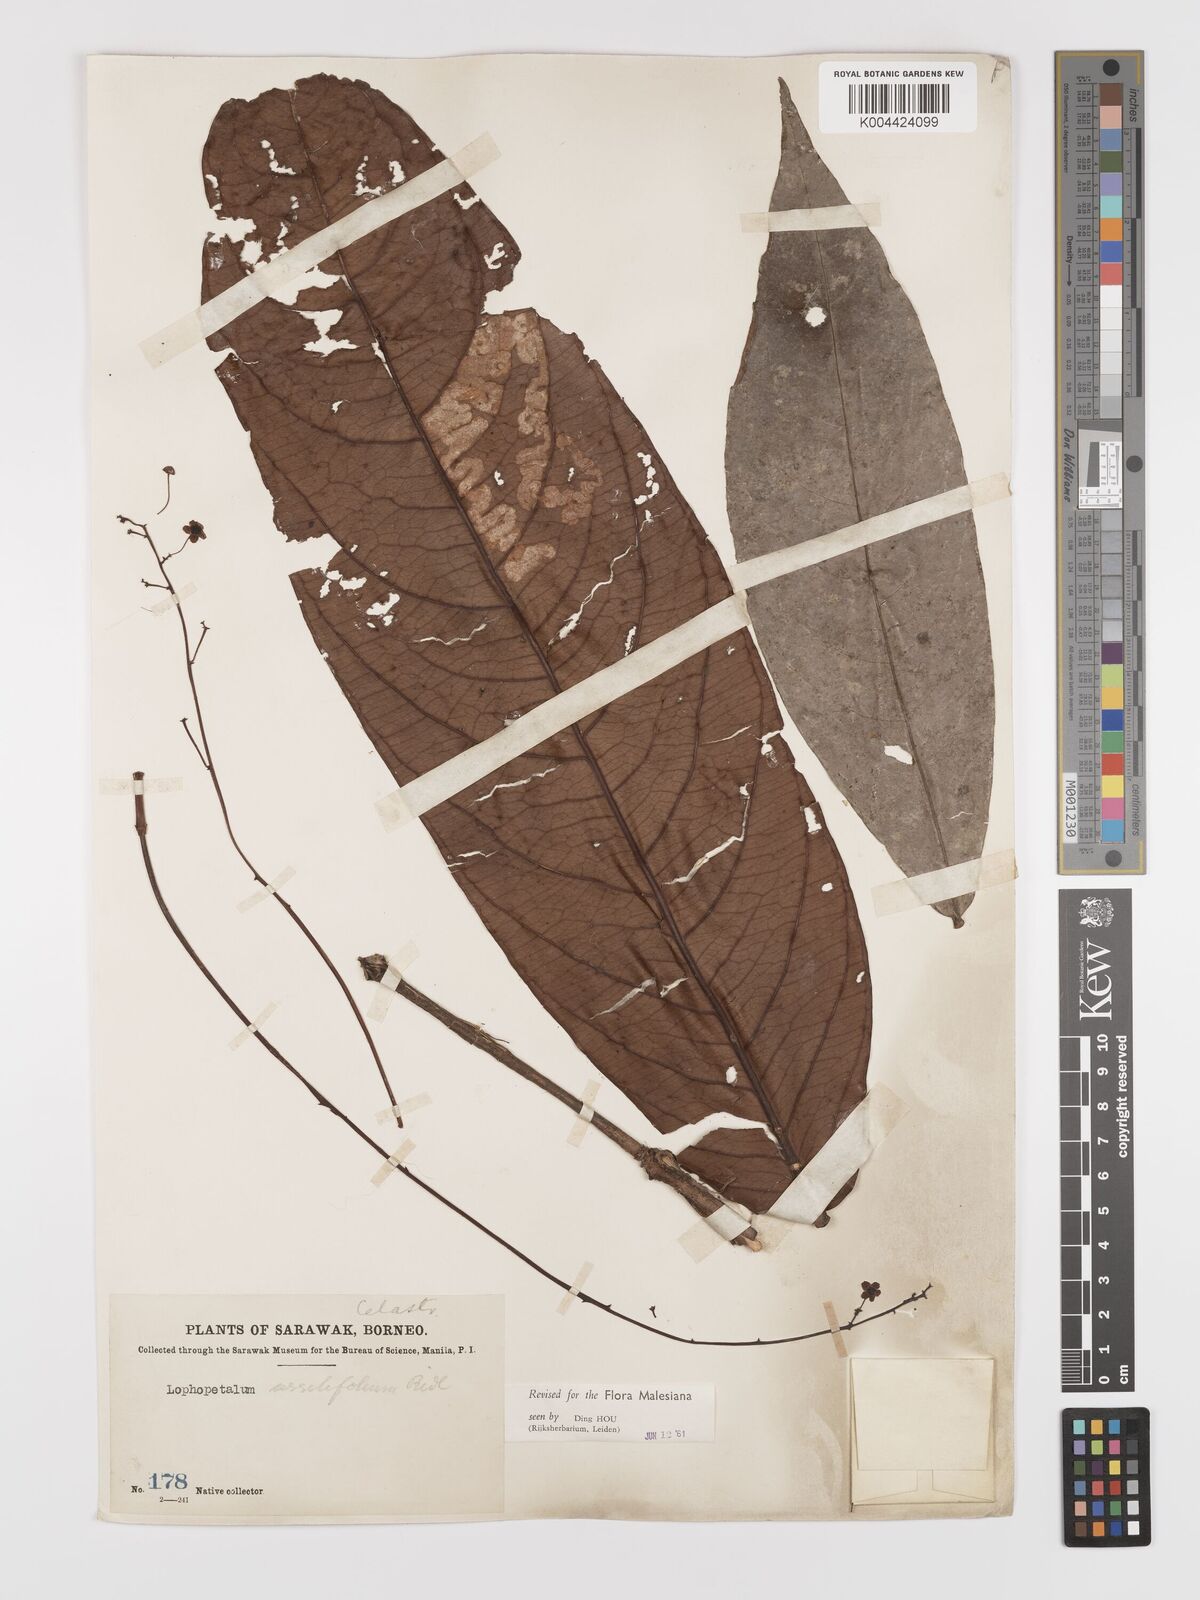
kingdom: Plantae
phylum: Tracheophyta
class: Magnoliopsida
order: Celastrales
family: Celastraceae
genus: Lophopetalum
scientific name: Lophopetalum sessilifolium
